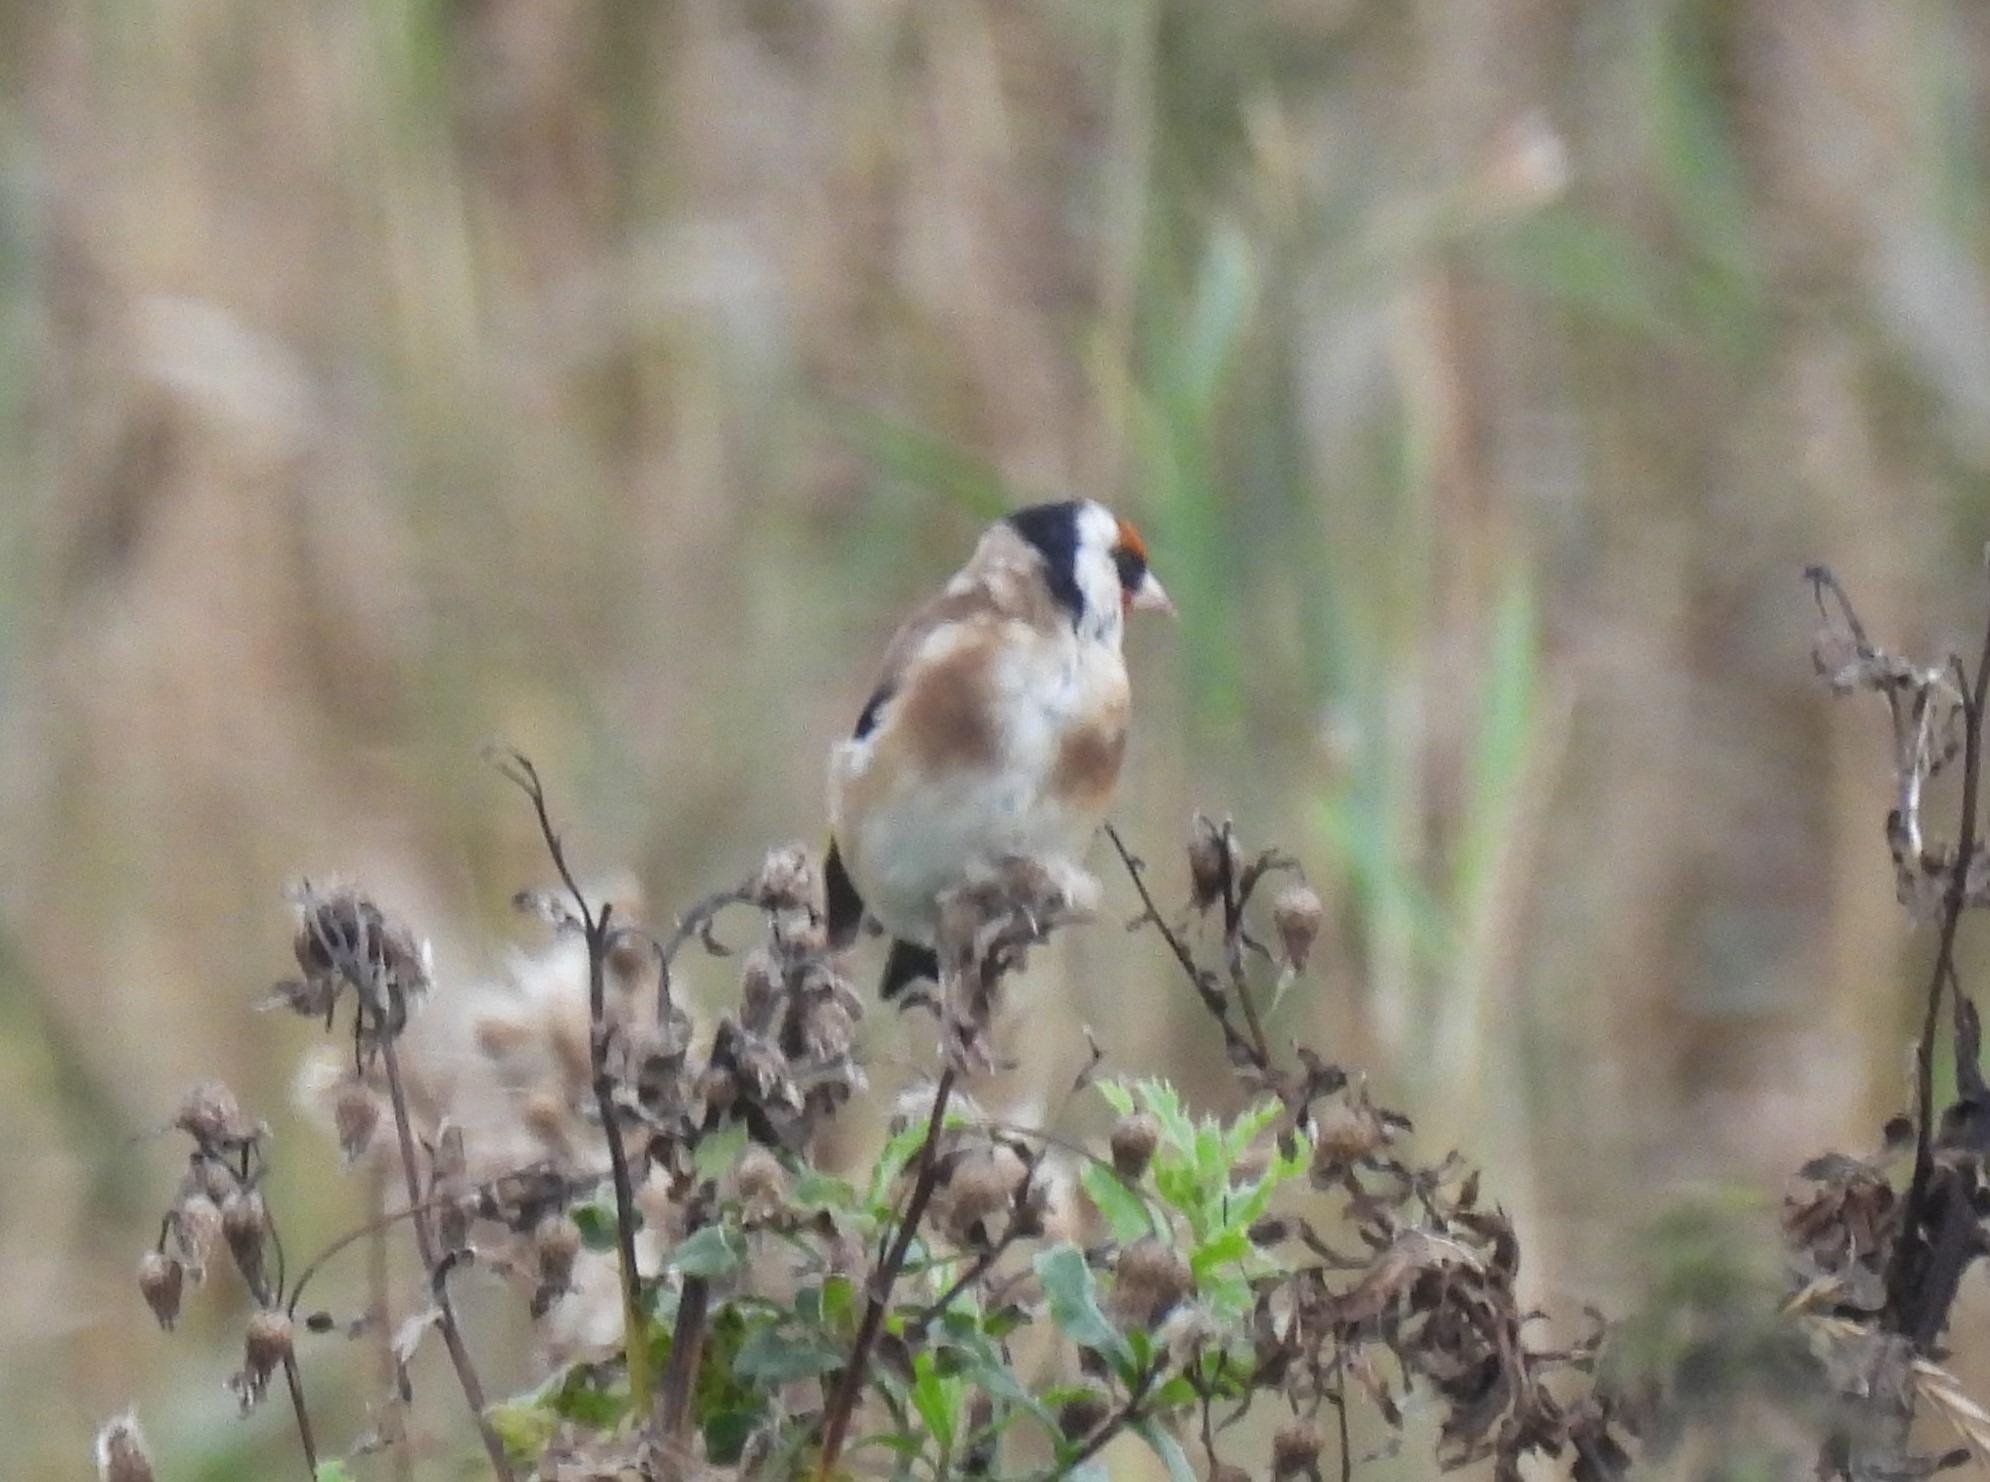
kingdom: Animalia
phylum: Chordata
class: Aves
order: Passeriformes
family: Fringillidae
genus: Carduelis
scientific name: Carduelis carduelis
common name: Stillits
